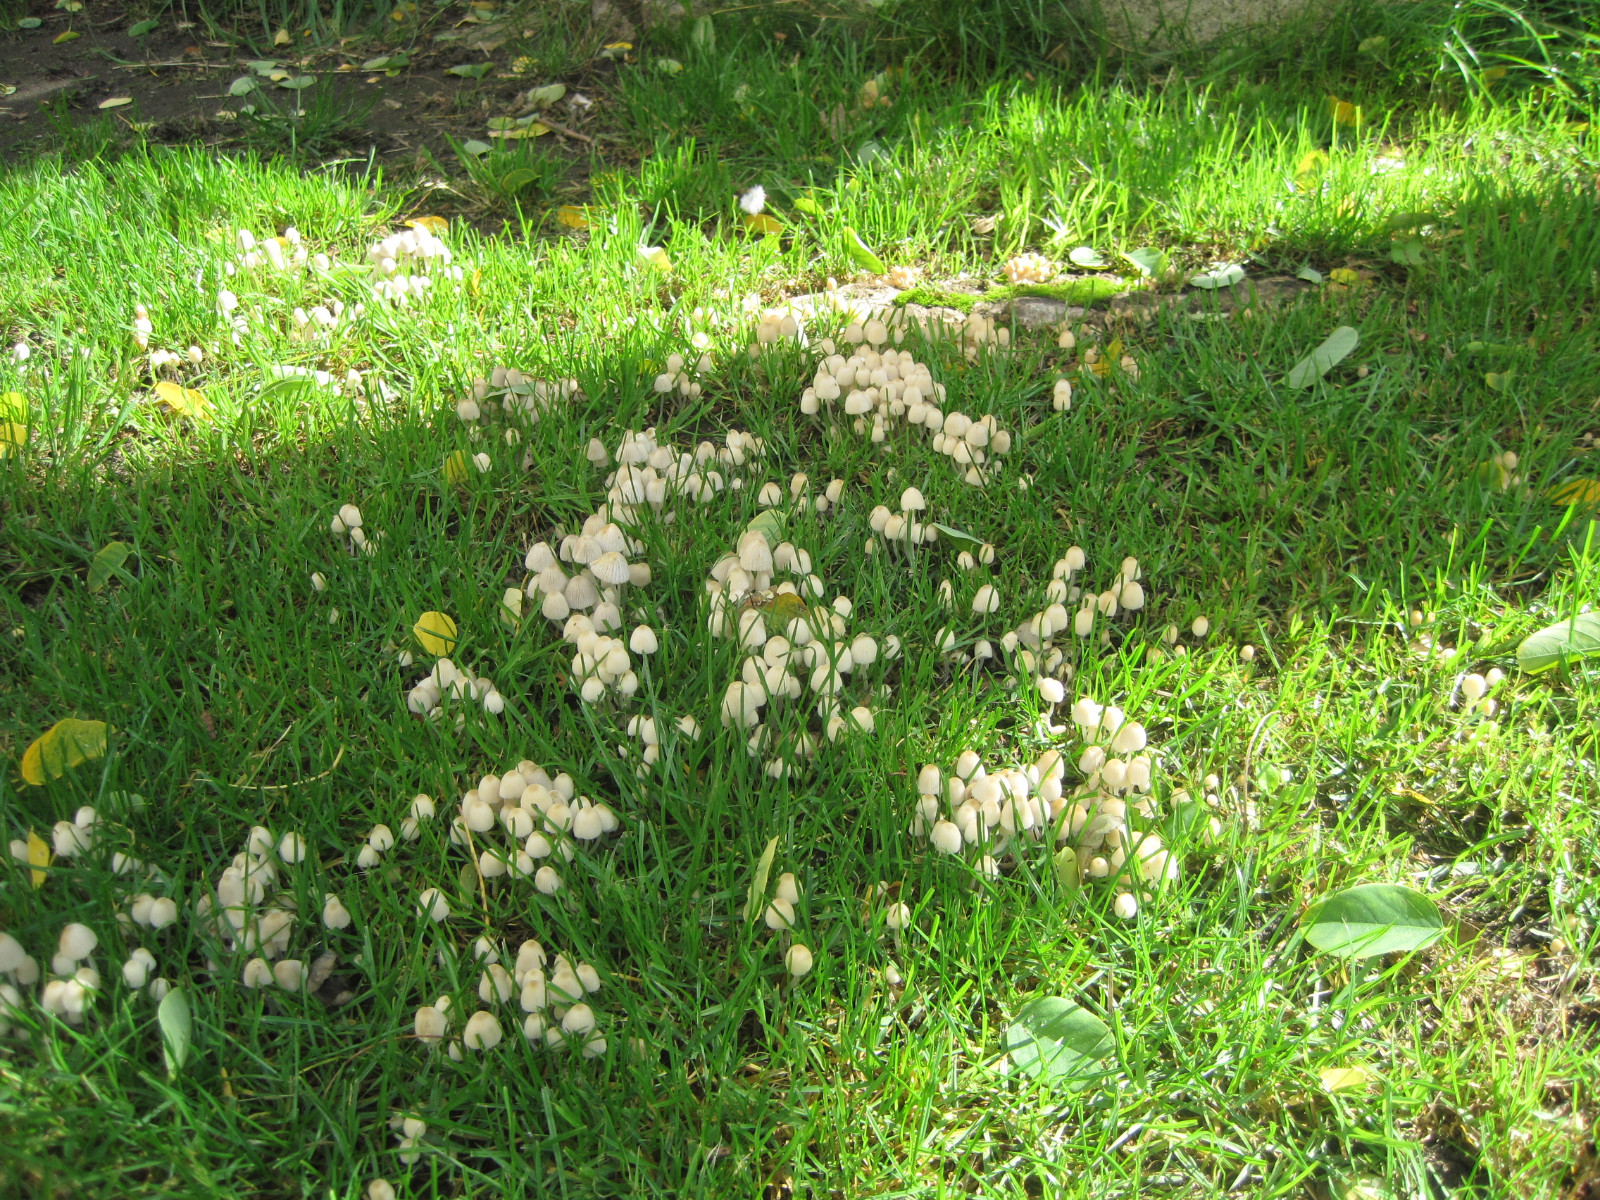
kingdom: Fungi
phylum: Basidiomycota
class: Agaricomycetes
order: Agaricales
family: Psathyrellaceae
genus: Coprinellus
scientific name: Coprinellus disseminatus
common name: bredsået blækhat
